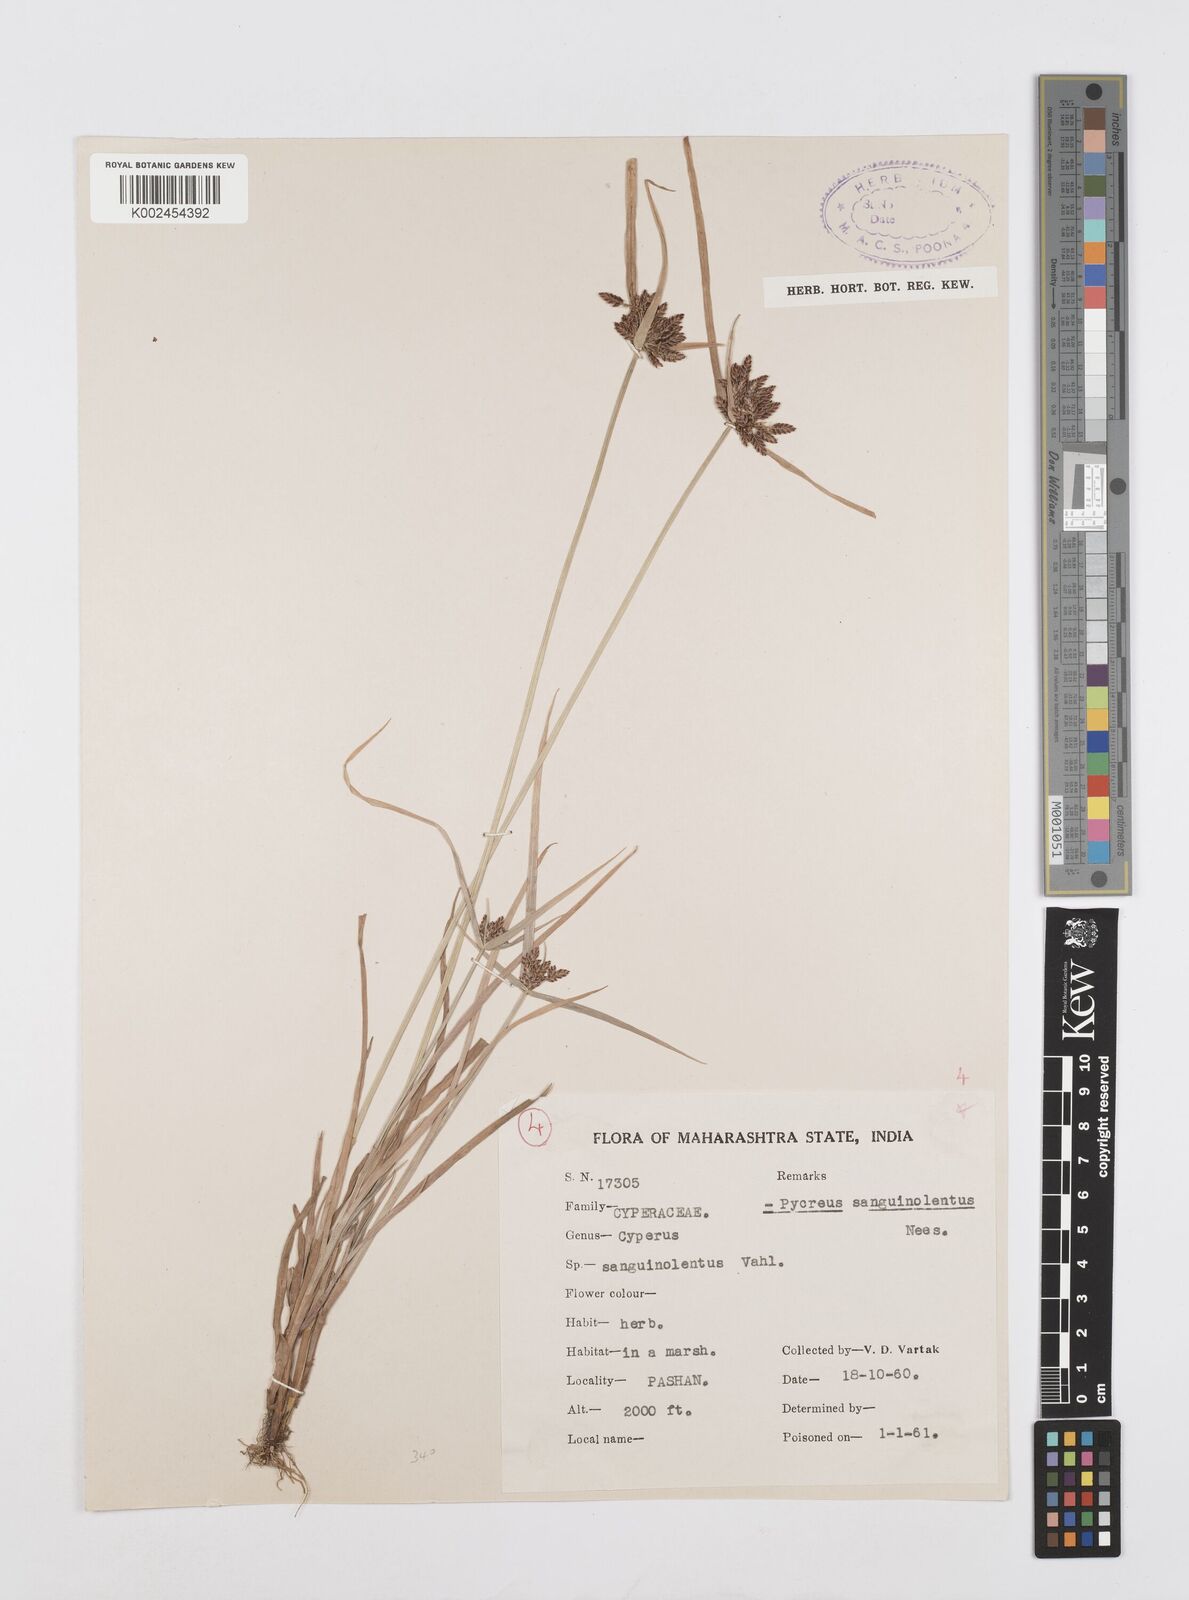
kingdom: Plantae
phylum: Tracheophyta
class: Liliopsida
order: Poales
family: Cyperaceae
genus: Cyperus
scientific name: Cyperus sanguinolentus
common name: Purpleglume flatsedge
